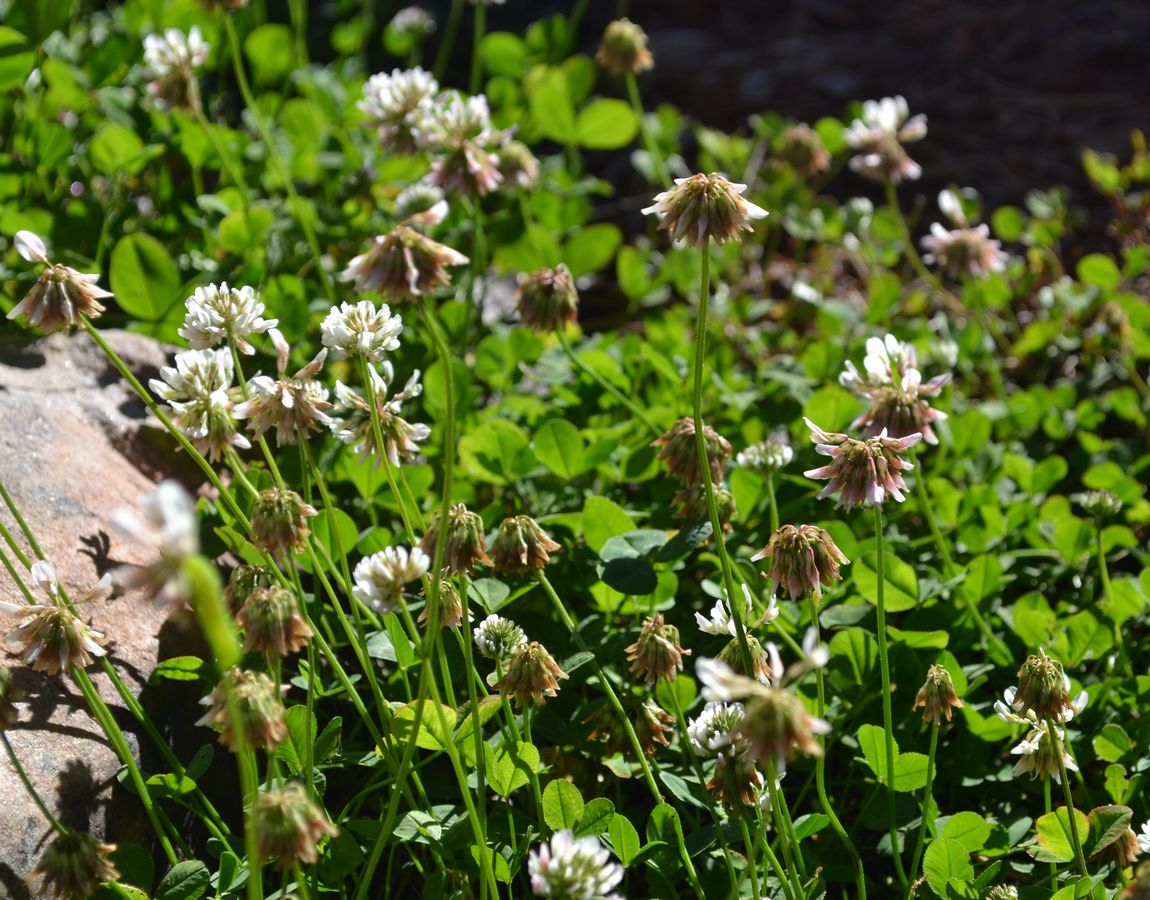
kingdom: Plantae
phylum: Tracheophyta
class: Magnoliopsida
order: Fabales
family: Fabaceae
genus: Trifolium
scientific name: Trifolium repens
